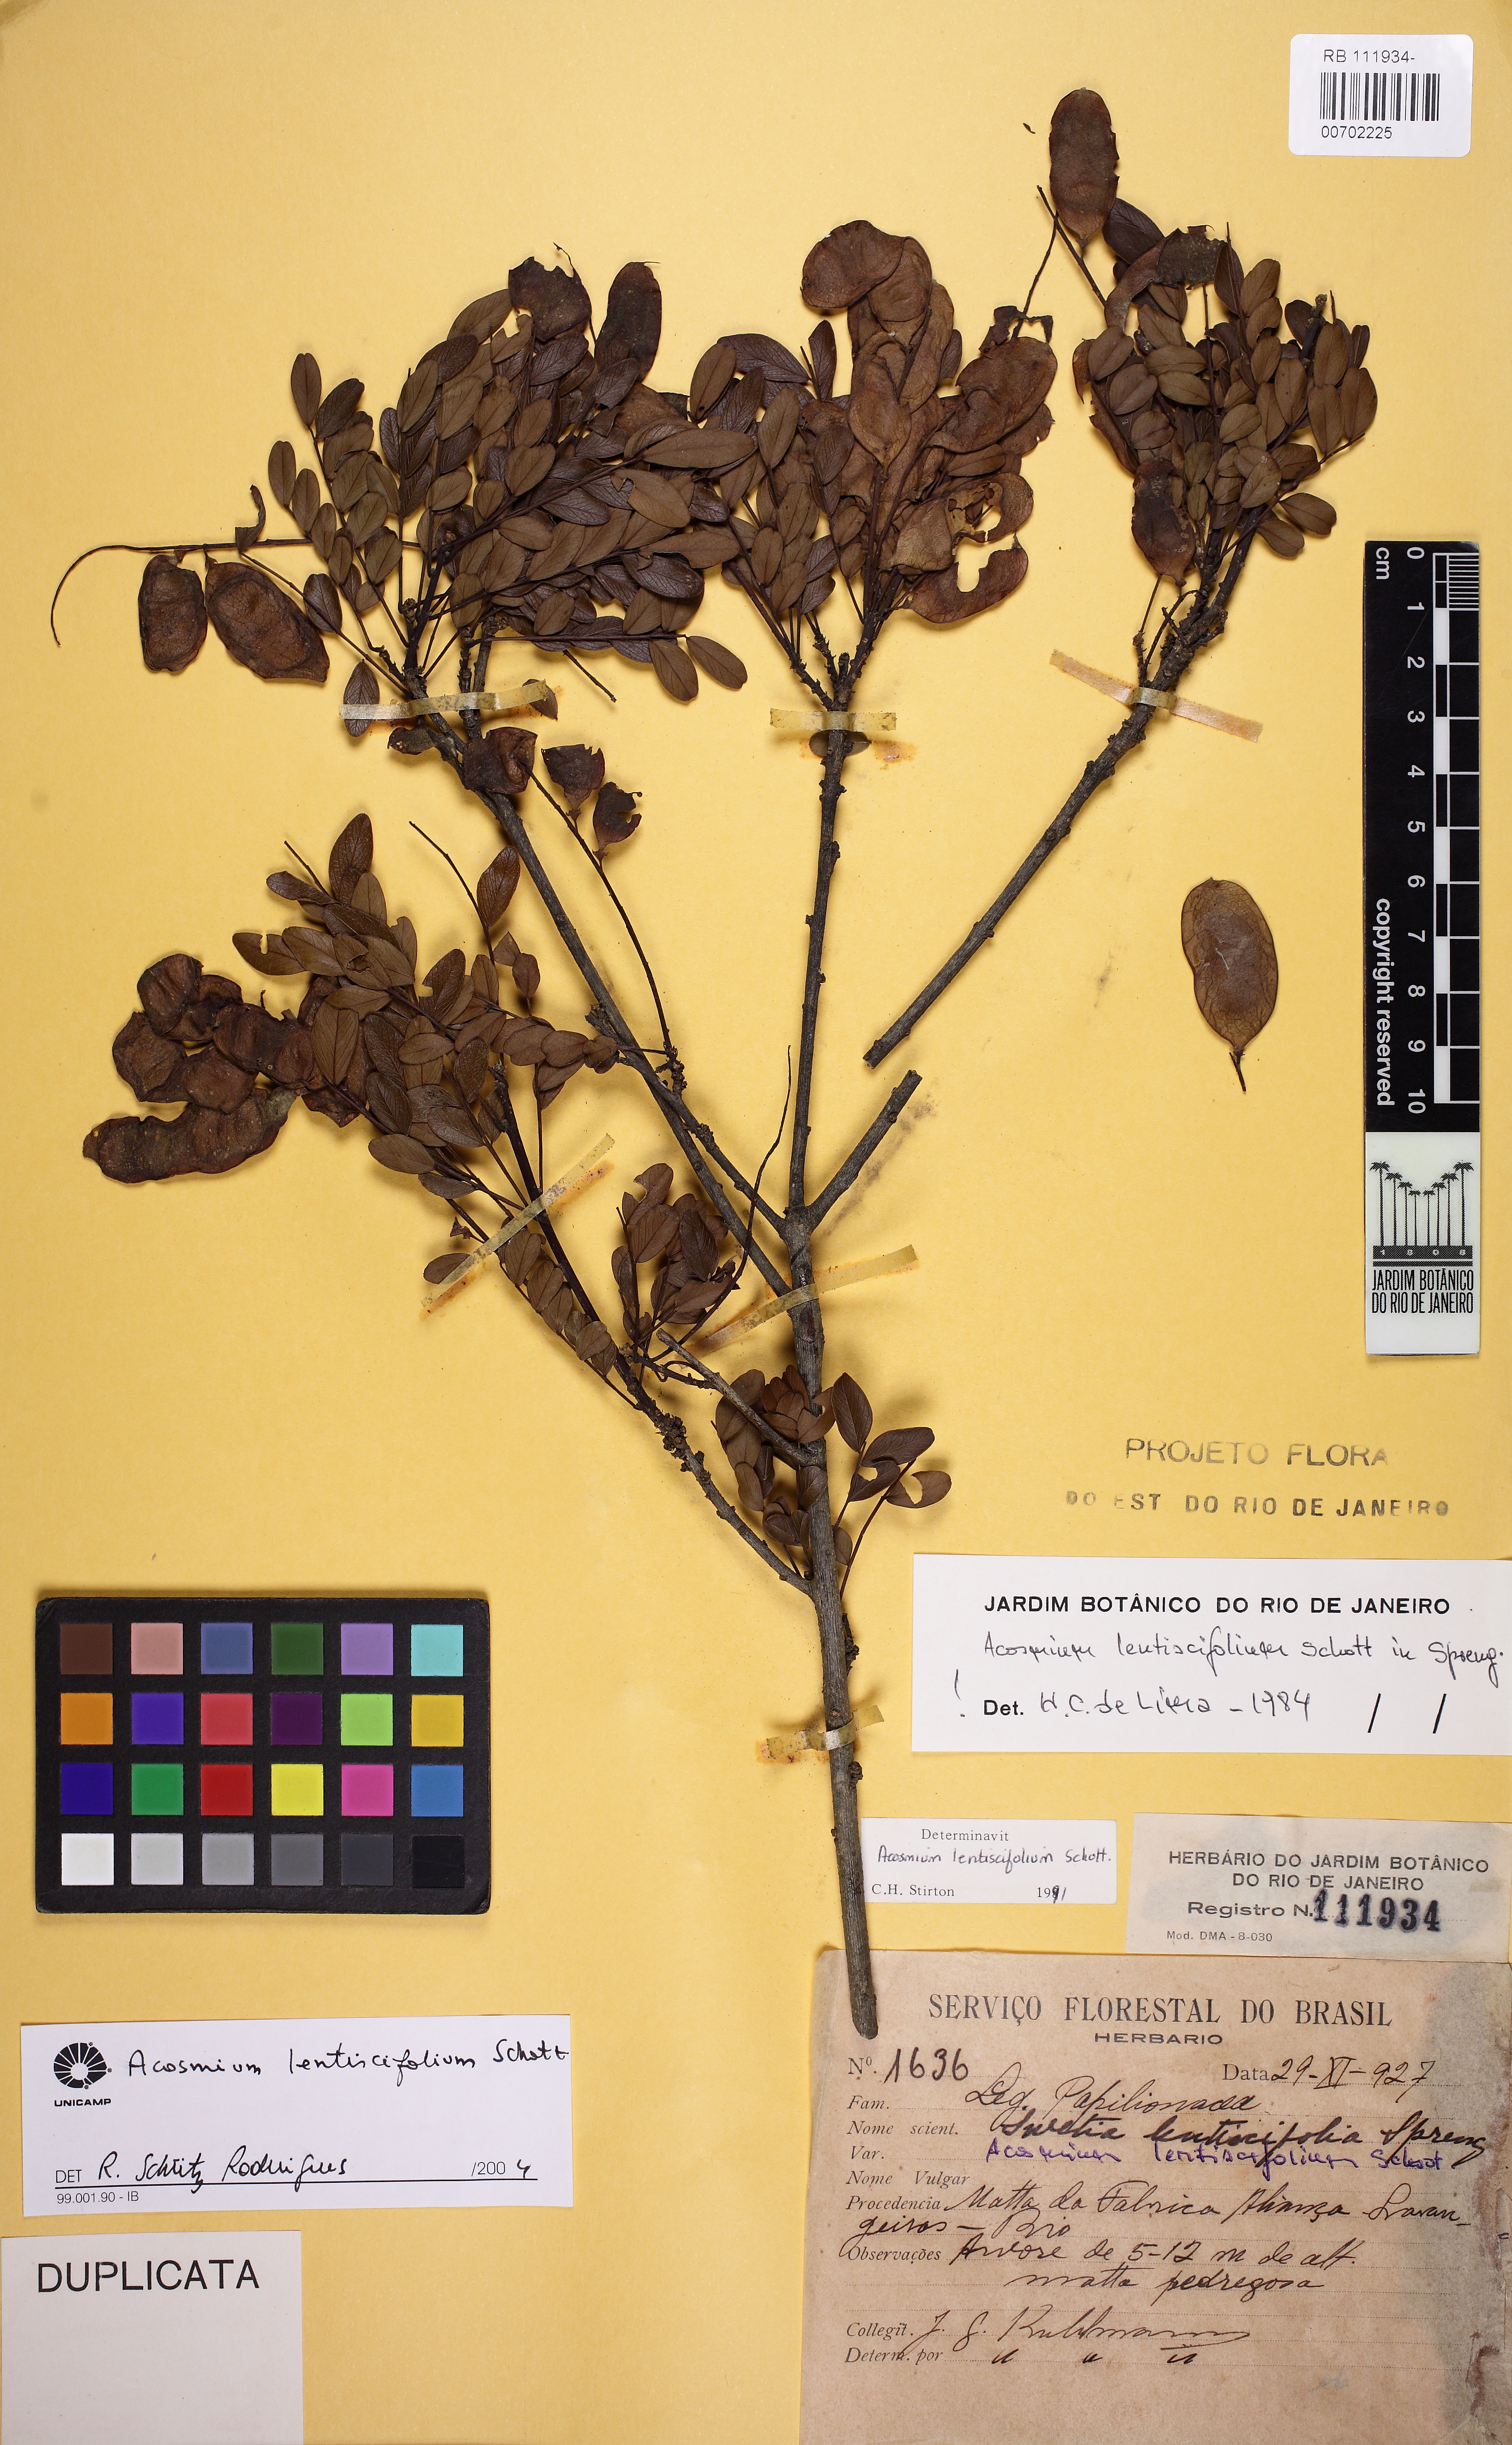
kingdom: Plantae
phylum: Tracheophyta
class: Magnoliopsida
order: Fabales
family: Fabaceae
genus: Acosmium
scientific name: Acosmium lentiscifolium
